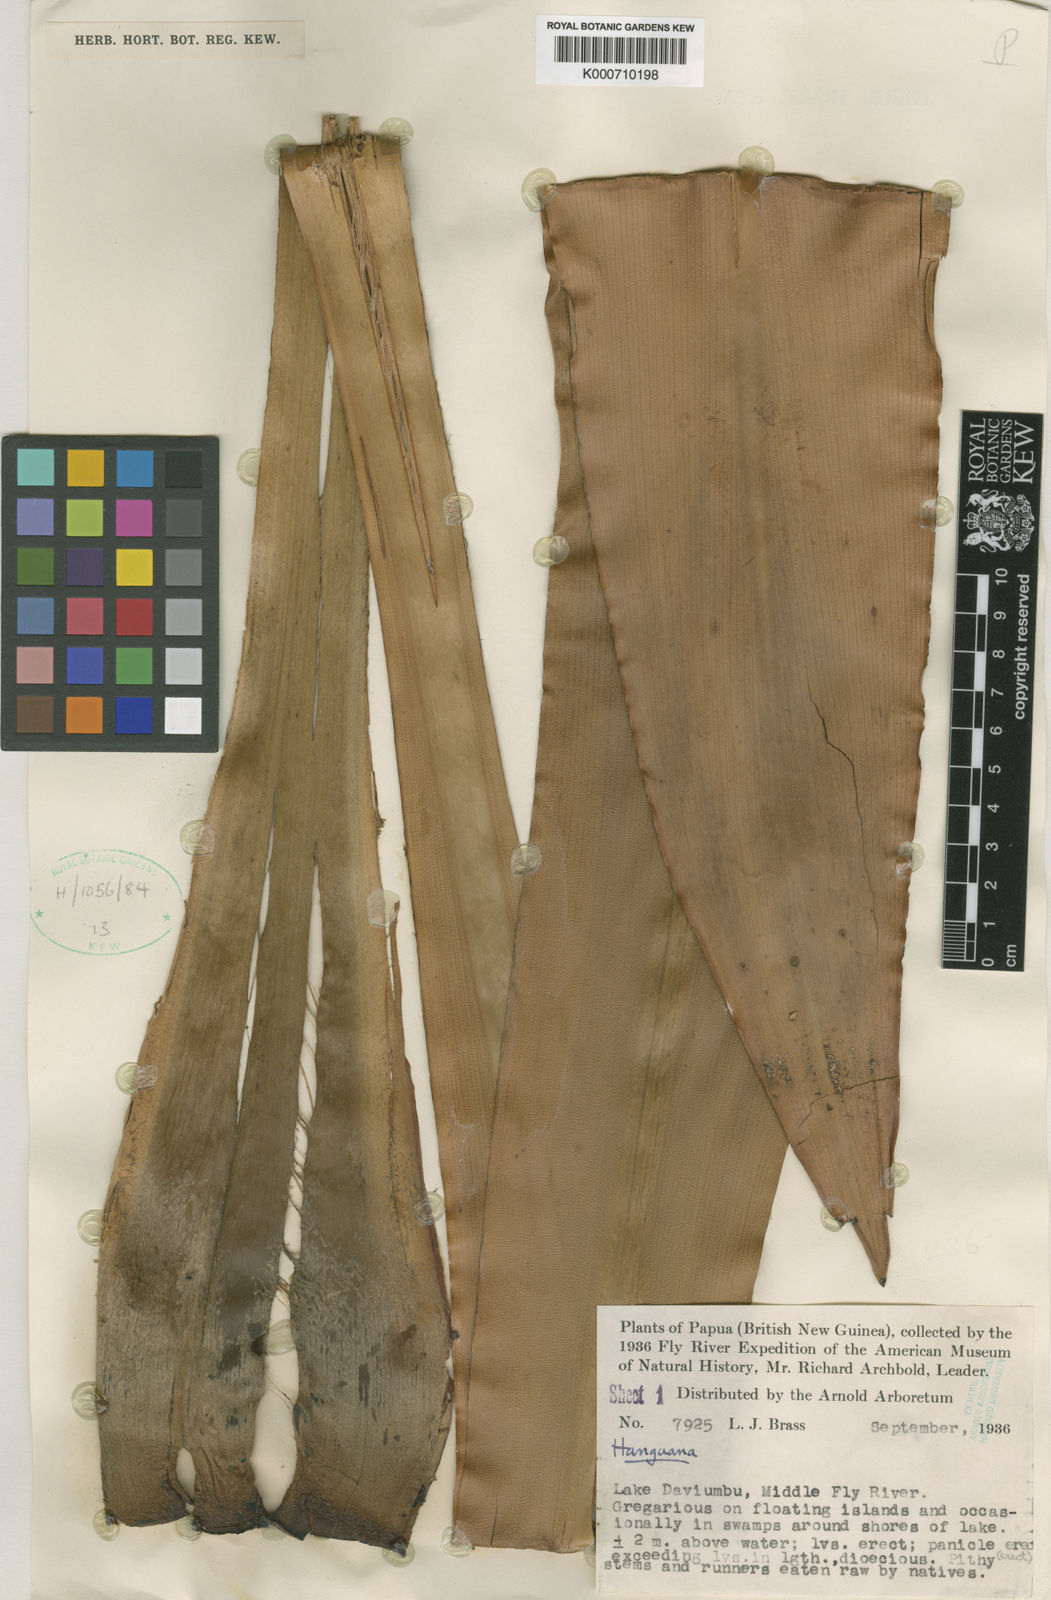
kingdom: Plantae
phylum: Tracheophyta
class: Liliopsida
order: Commelinales
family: Hanguanaceae
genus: Hanguana
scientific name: Hanguana
